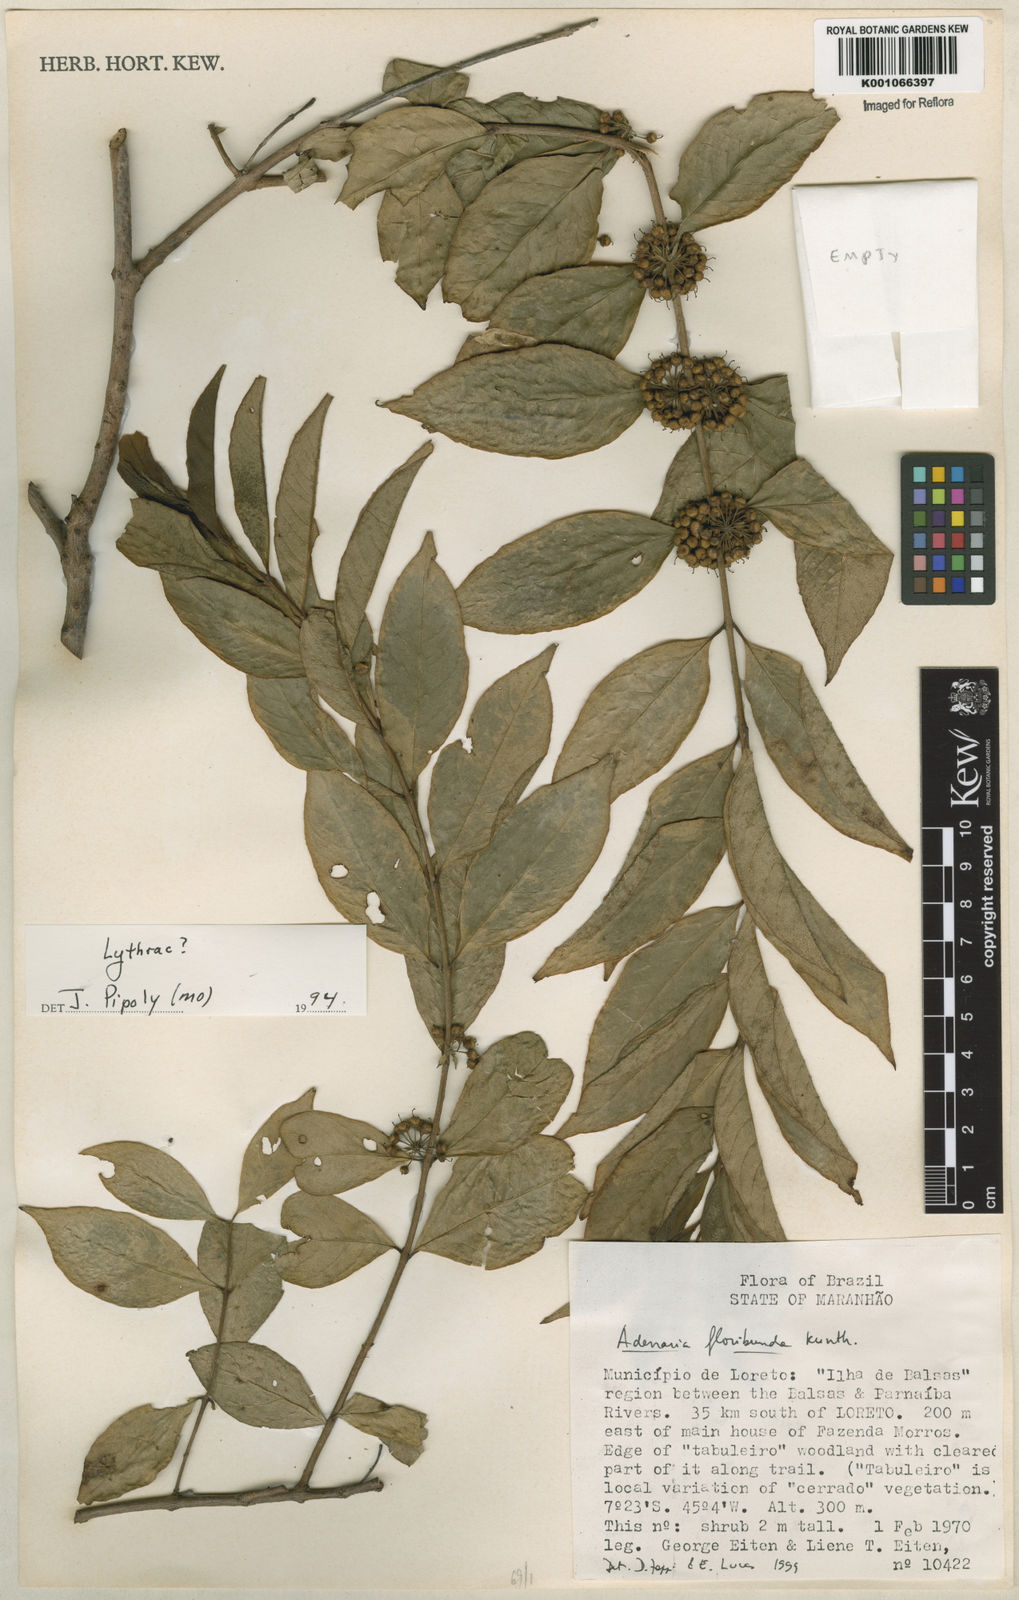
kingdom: Plantae
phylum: Tracheophyta
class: Magnoliopsida
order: Myrtales
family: Lythraceae
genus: Adenaria
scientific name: Adenaria floribunda
